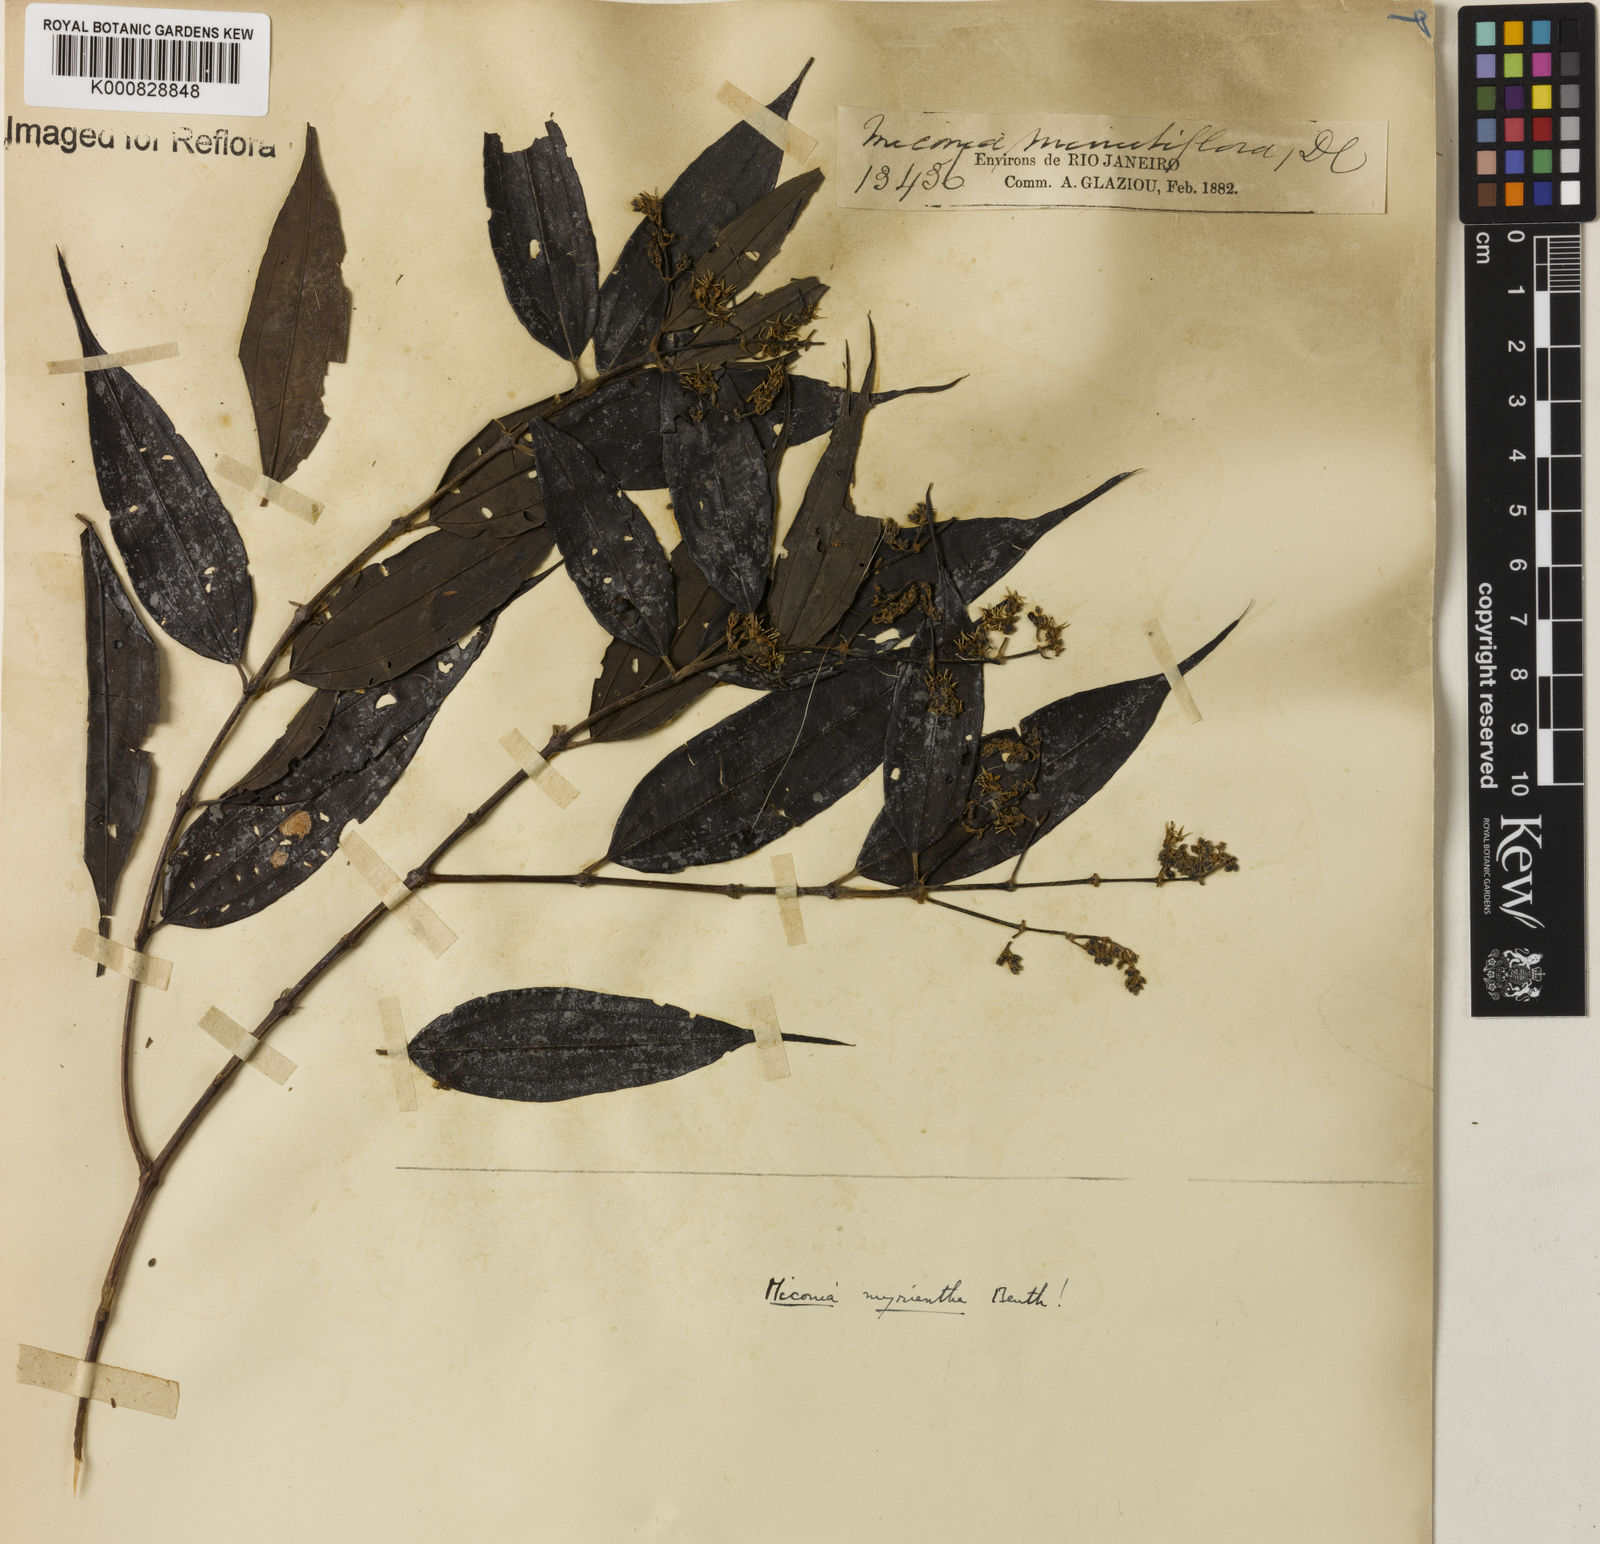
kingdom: Plantae
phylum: Tracheophyta
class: Magnoliopsida
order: Myrtales
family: Melastomataceae
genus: Miconia
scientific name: Miconia myriantha
